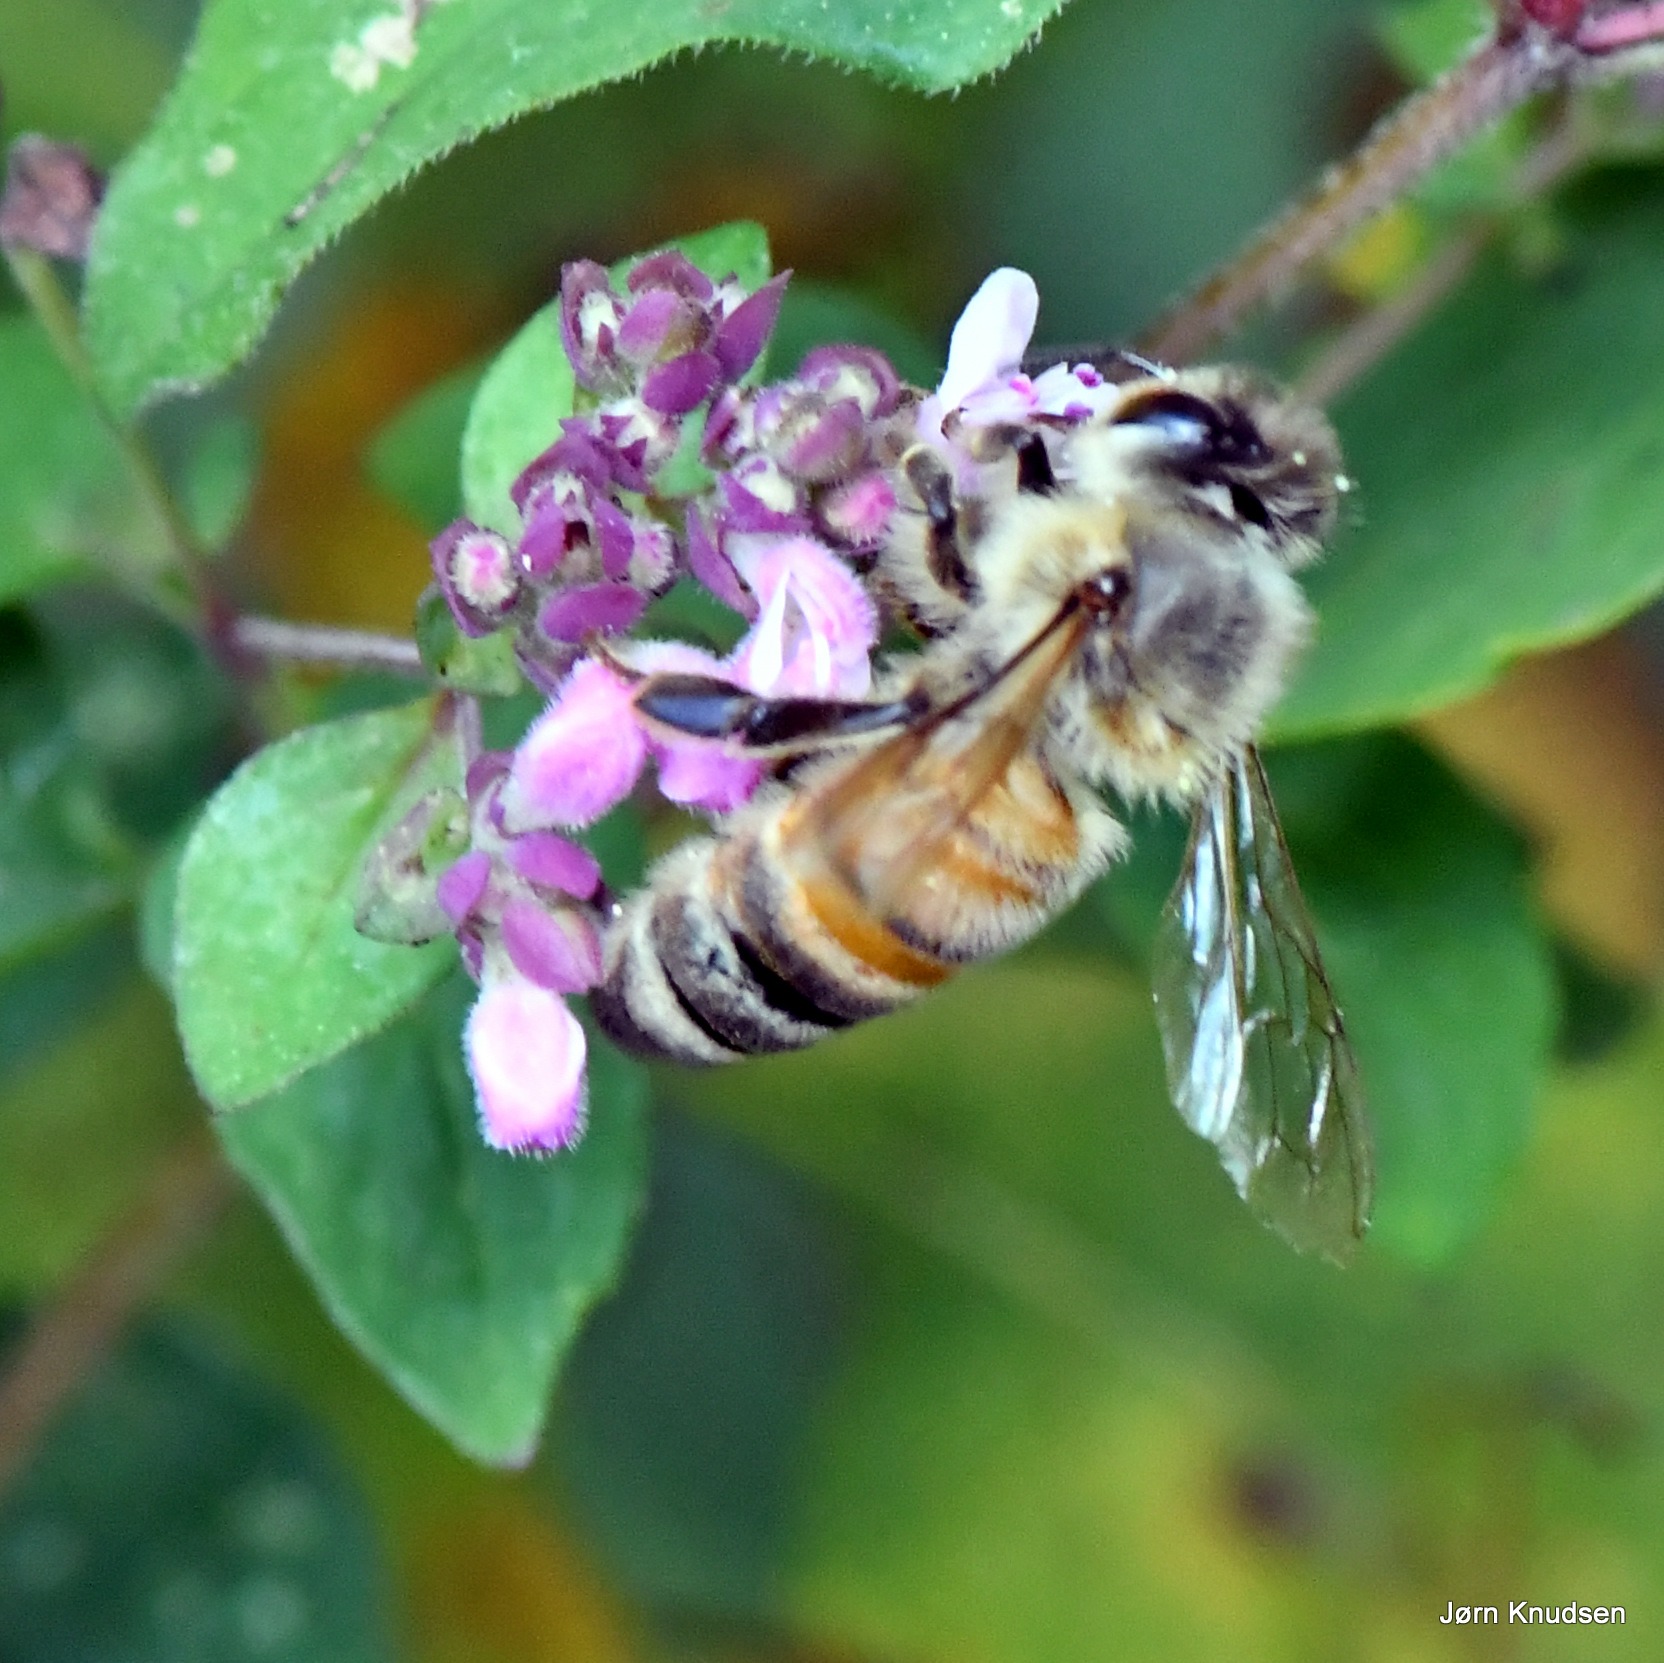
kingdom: Animalia
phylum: Arthropoda
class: Insecta
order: Hymenoptera
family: Apidae
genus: Apis
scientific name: Apis mellifera
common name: Honningbi
